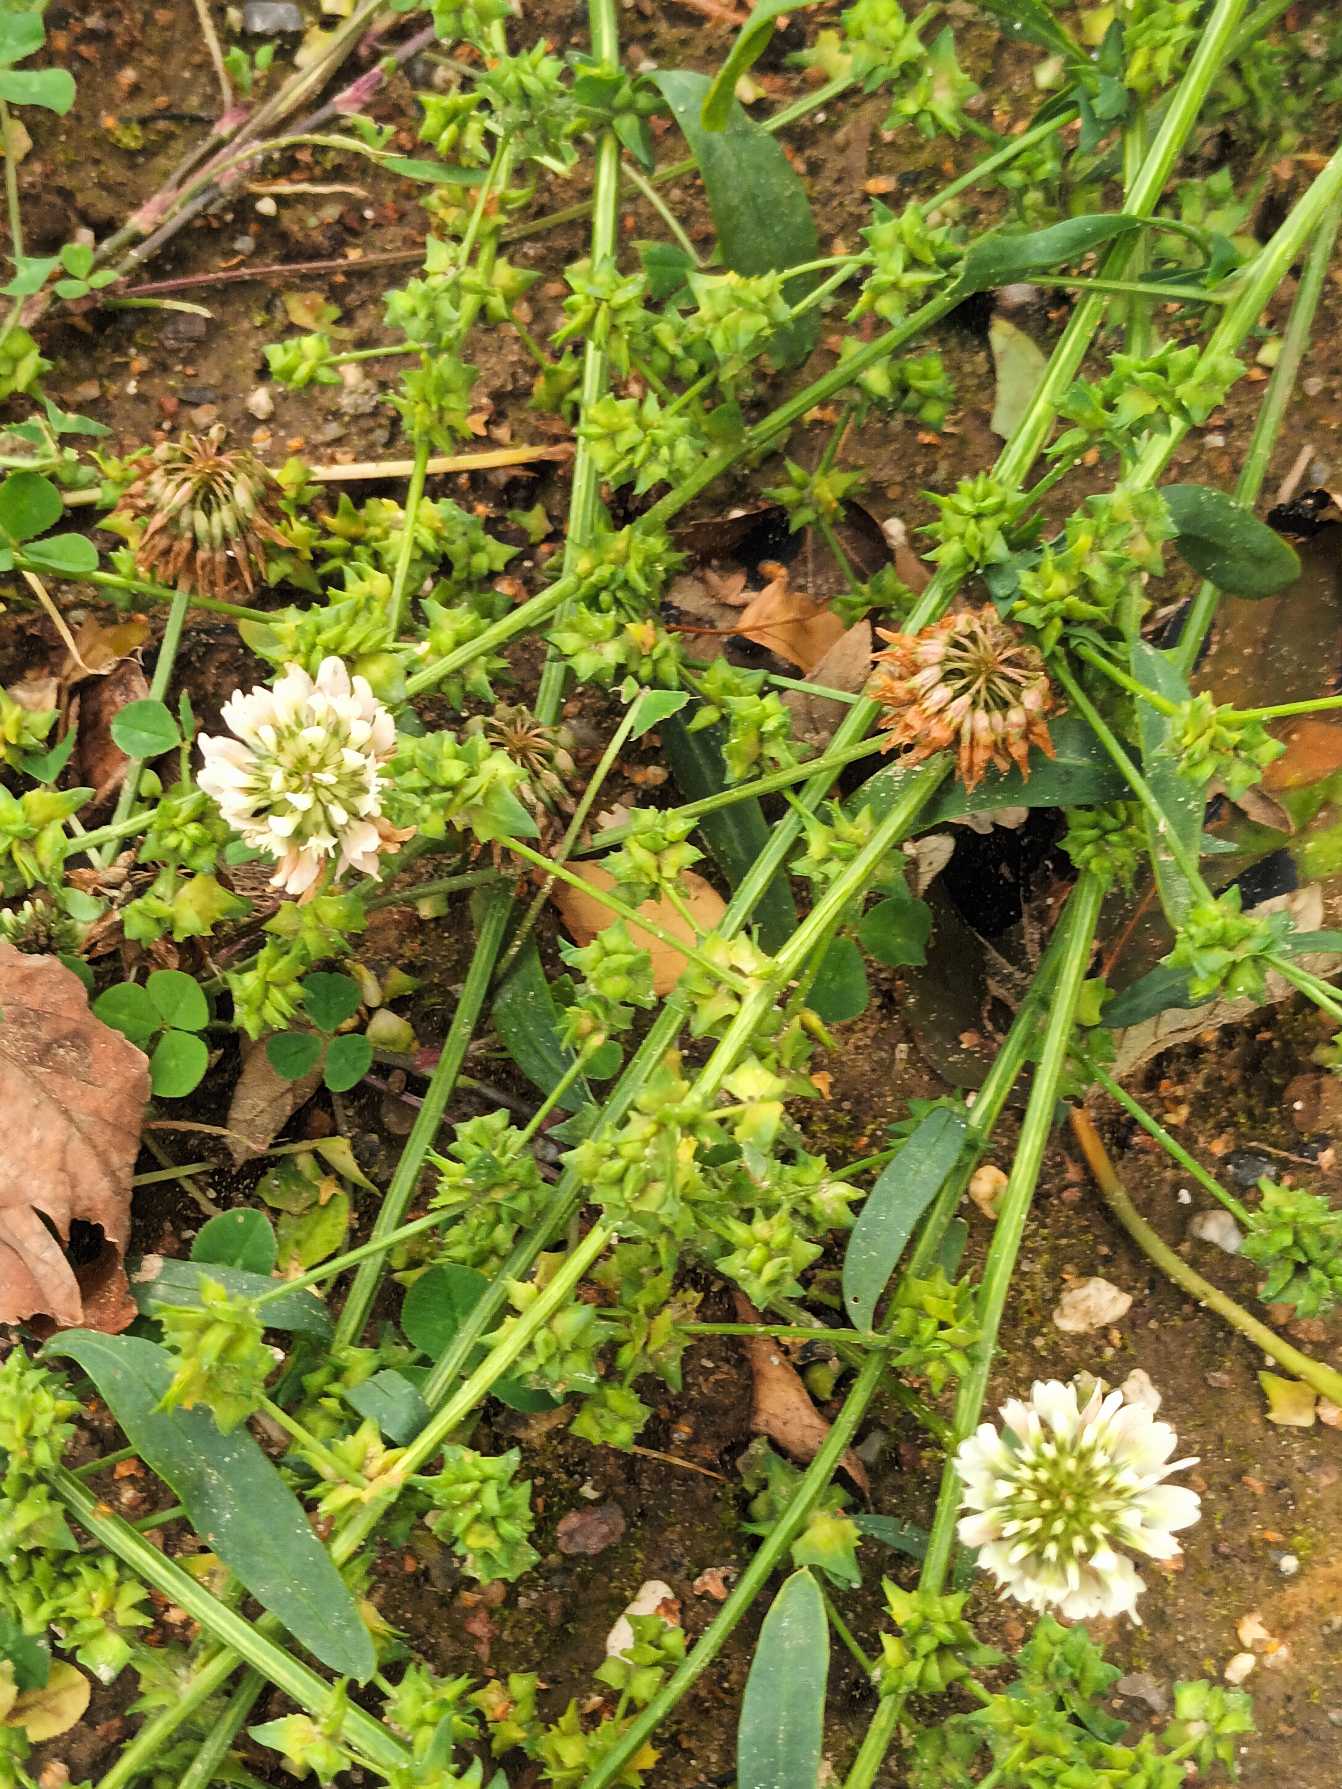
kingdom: Plantae
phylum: Tracheophyta
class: Magnoliopsida
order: Fabales
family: Fabaceae
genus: Trifolium
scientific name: Trifolium repens
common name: Hvid-kløver
